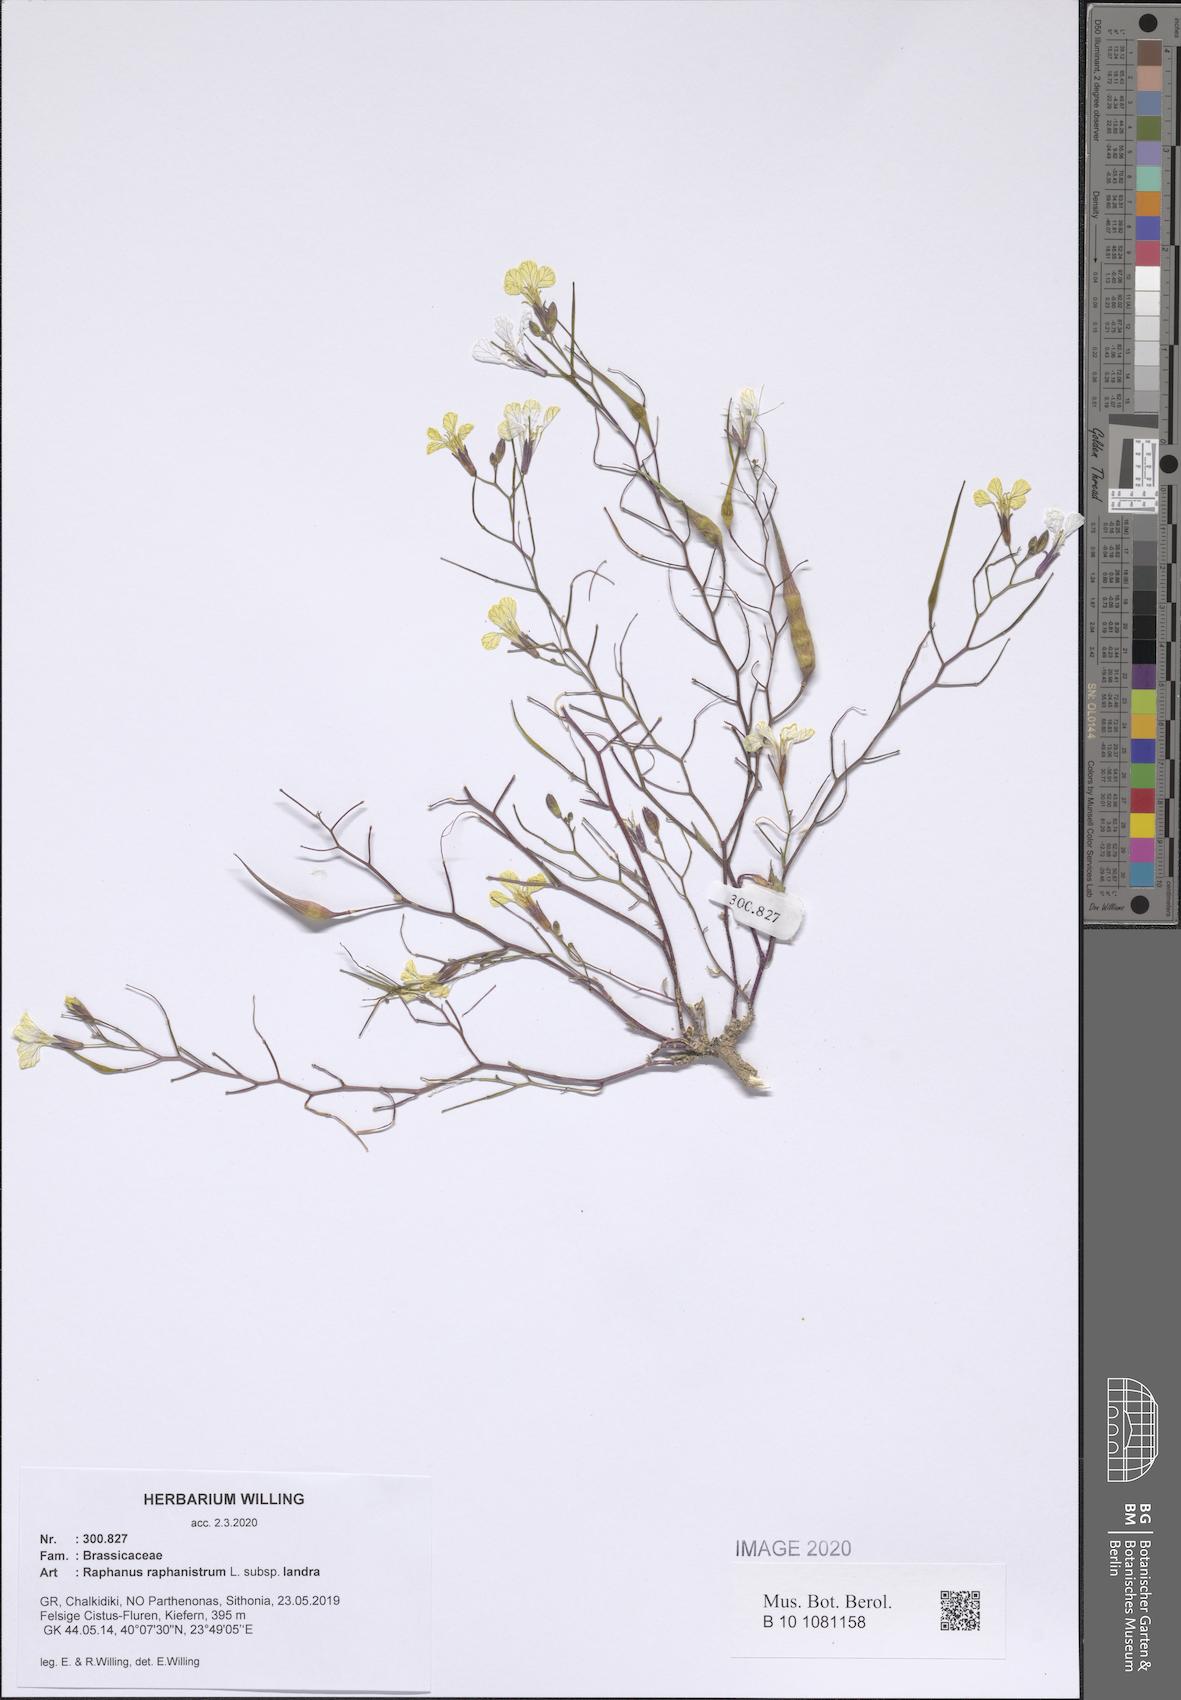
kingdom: Plantae
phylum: Tracheophyta
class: Magnoliopsida
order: Brassicales
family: Brassicaceae
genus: Raphanus
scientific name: Raphanus raphanistrum
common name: Wild radish
